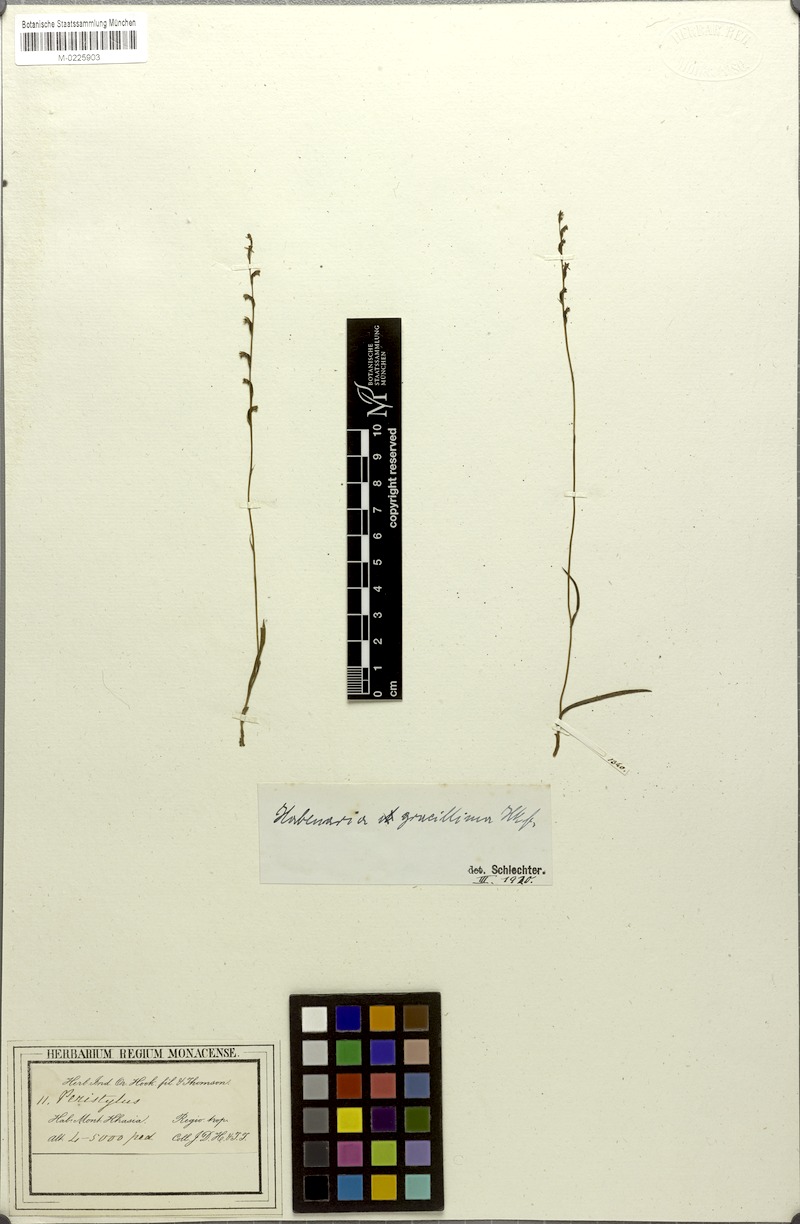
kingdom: Plantae
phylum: Tracheophyta
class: Liliopsida
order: Asparagales
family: Orchidaceae
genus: Herminium
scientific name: Herminium mannii
